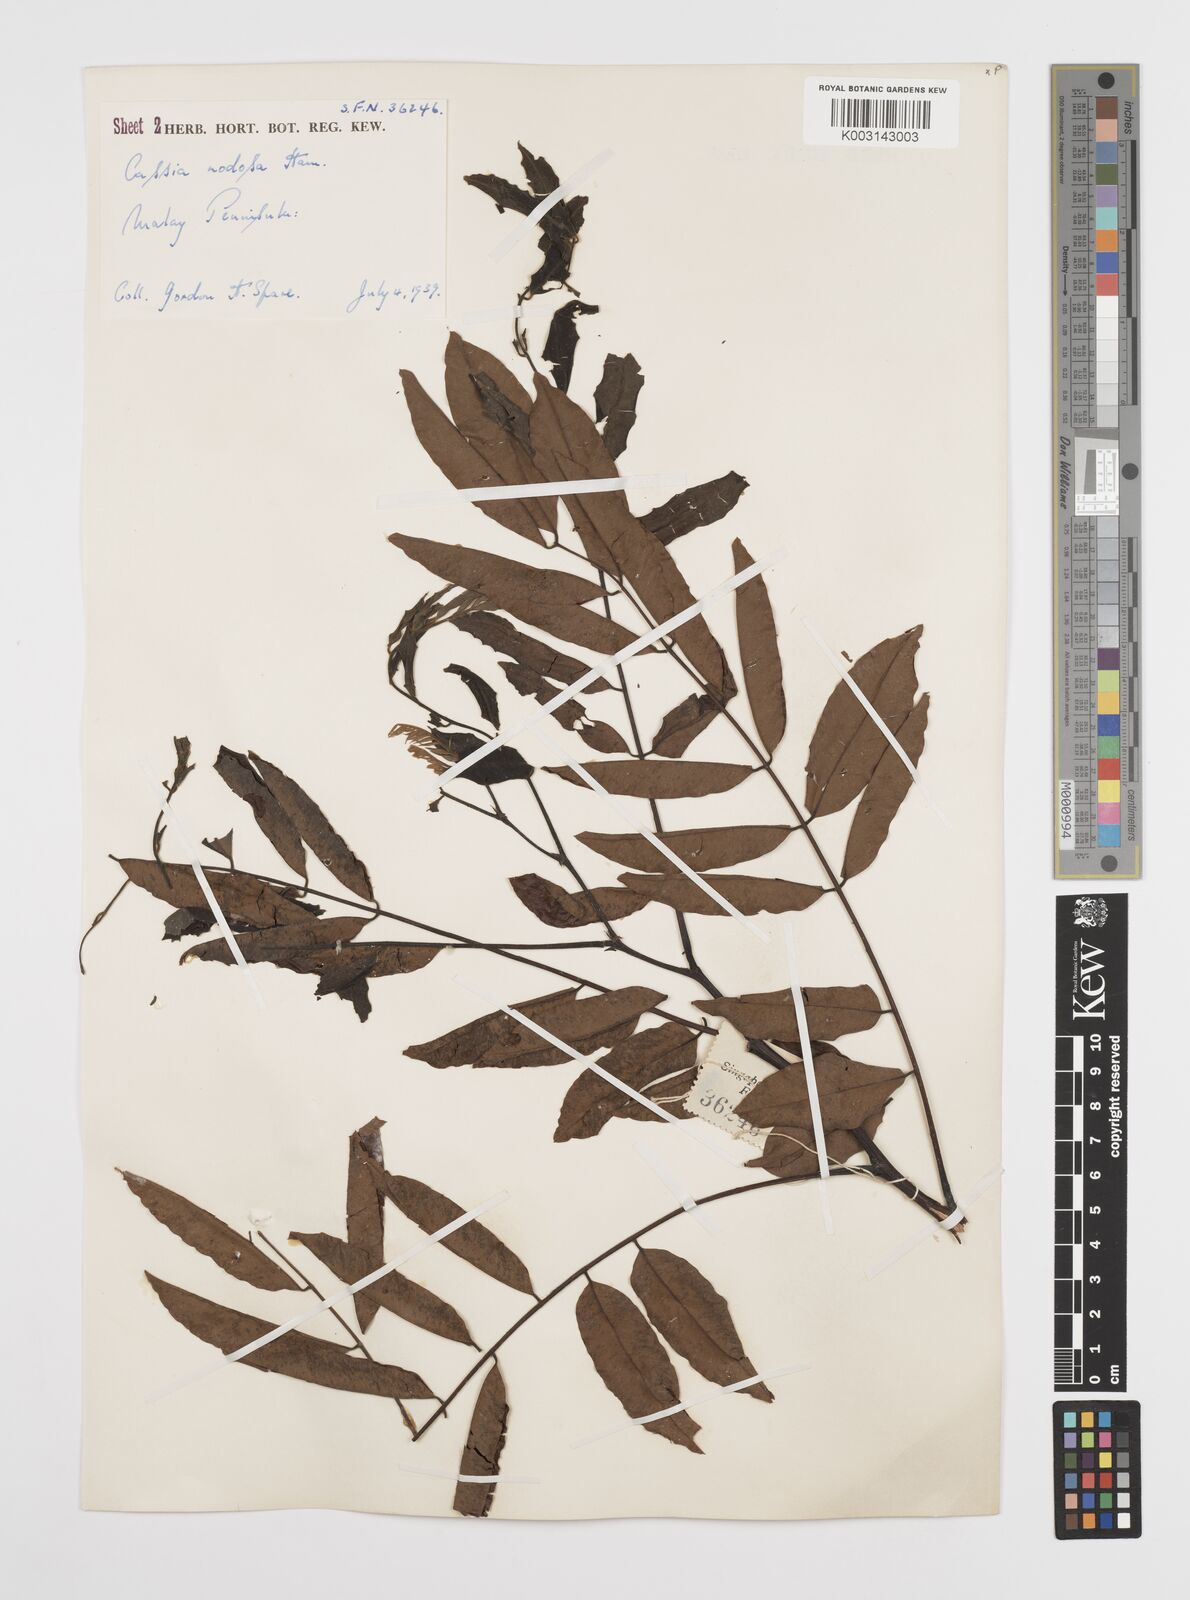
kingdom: Plantae
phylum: Tracheophyta
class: Magnoliopsida
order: Fabales
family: Fabaceae
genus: Cassia
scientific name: Cassia javanica
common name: Apple blossom
